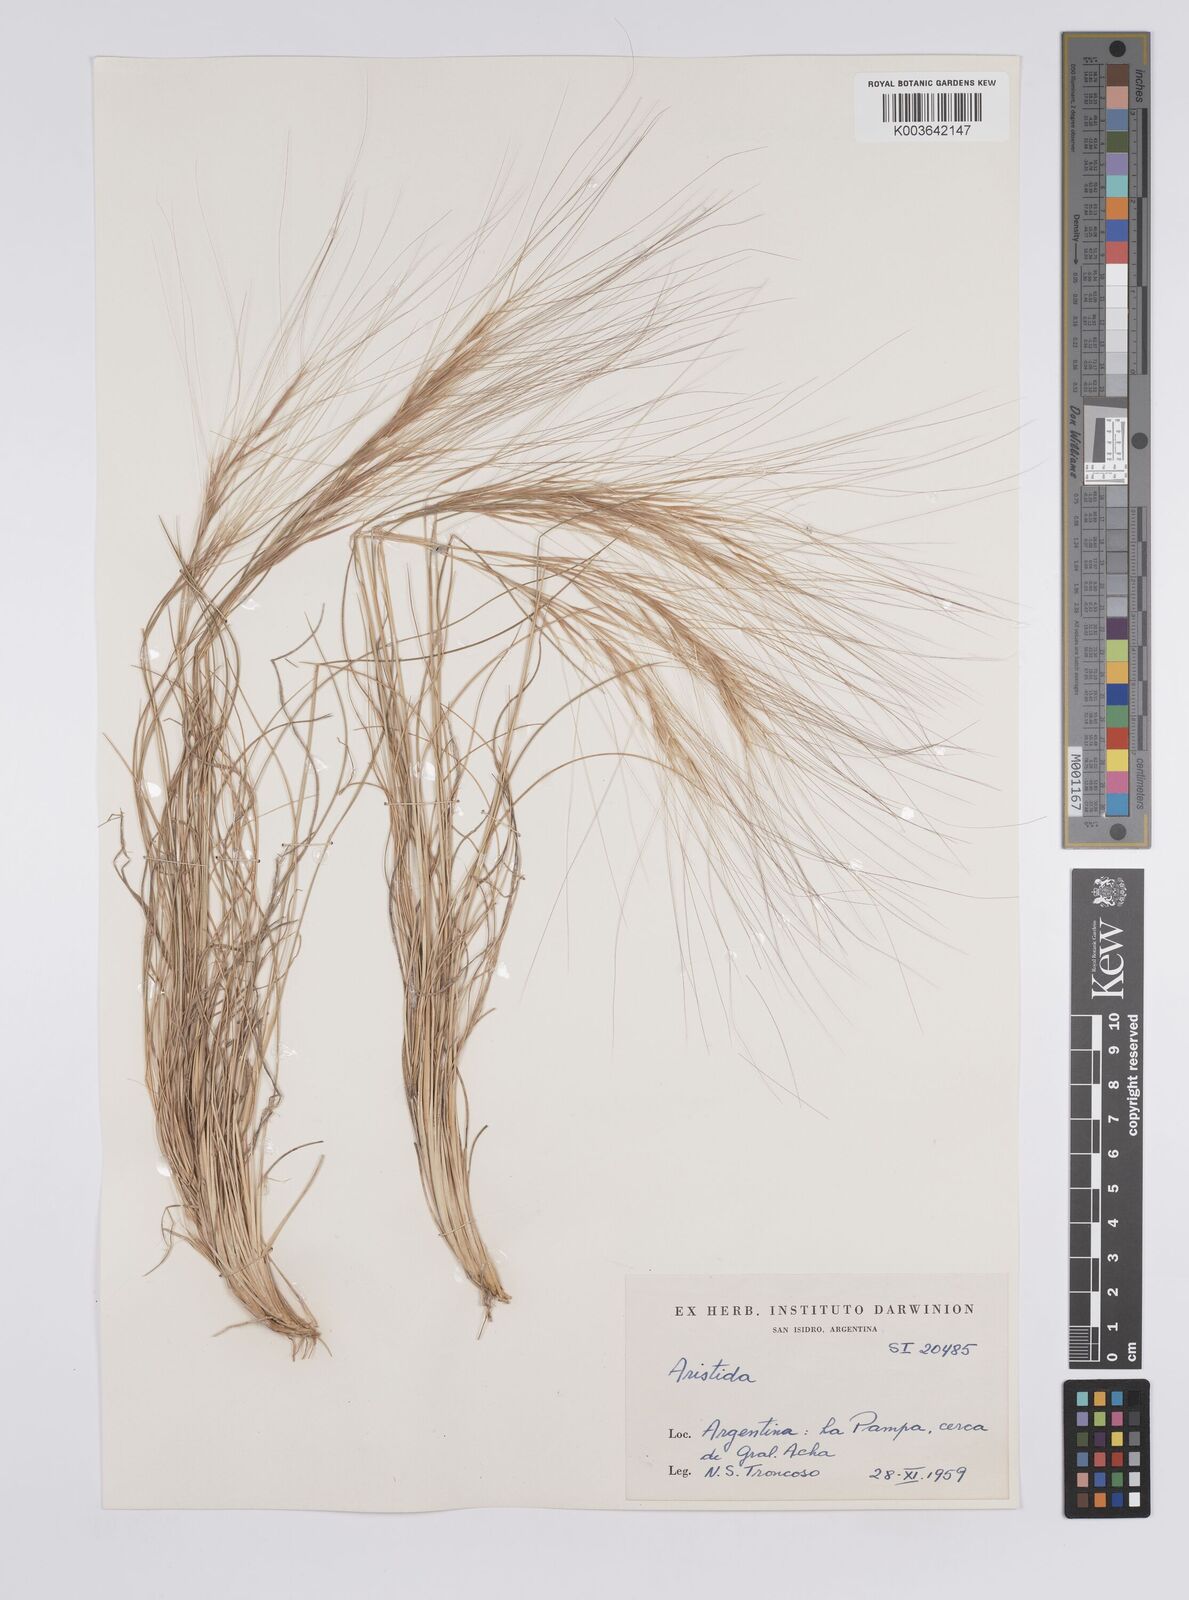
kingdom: Plantae
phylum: Tracheophyta
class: Liliopsida
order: Poales
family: Poaceae
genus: Aristida
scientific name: Aristida
